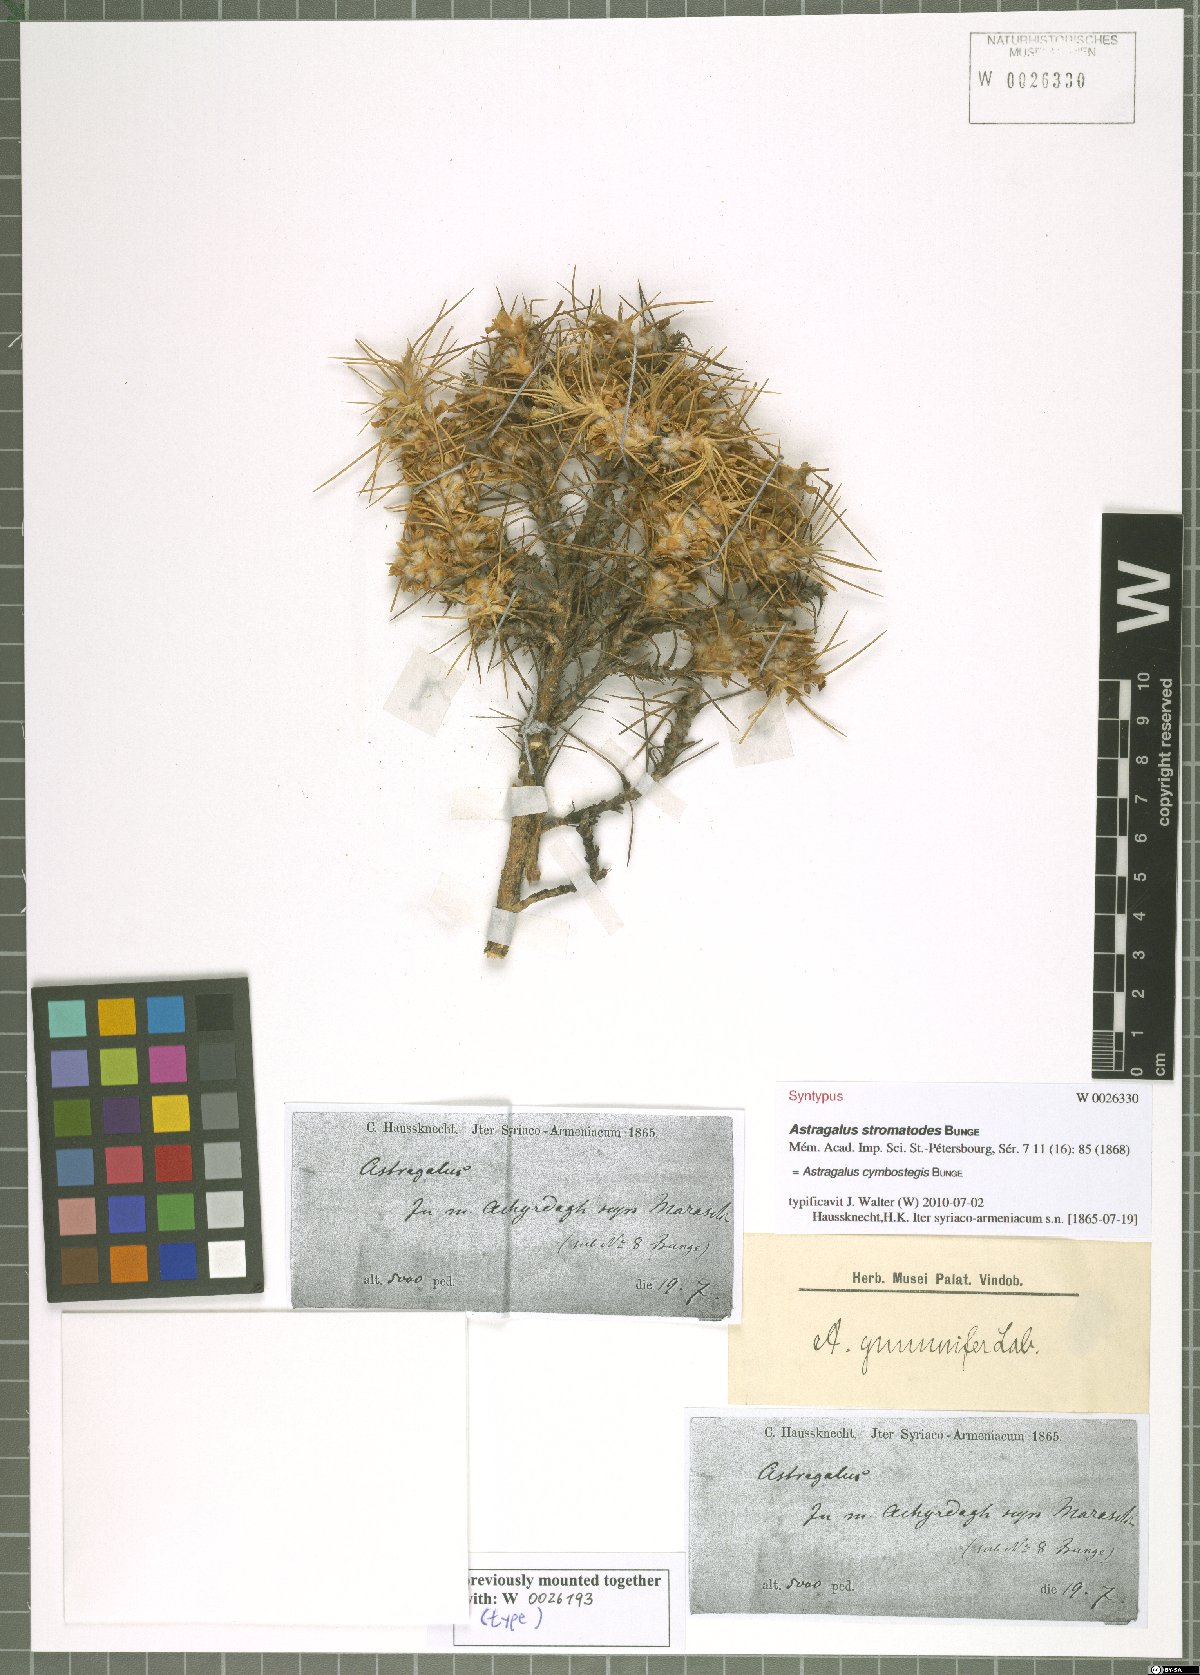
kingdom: Plantae
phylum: Tracheophyta
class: Magnoliopsida
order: Fabales
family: Fabaceae
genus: Astragalus
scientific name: Astragalus cymbostegis
